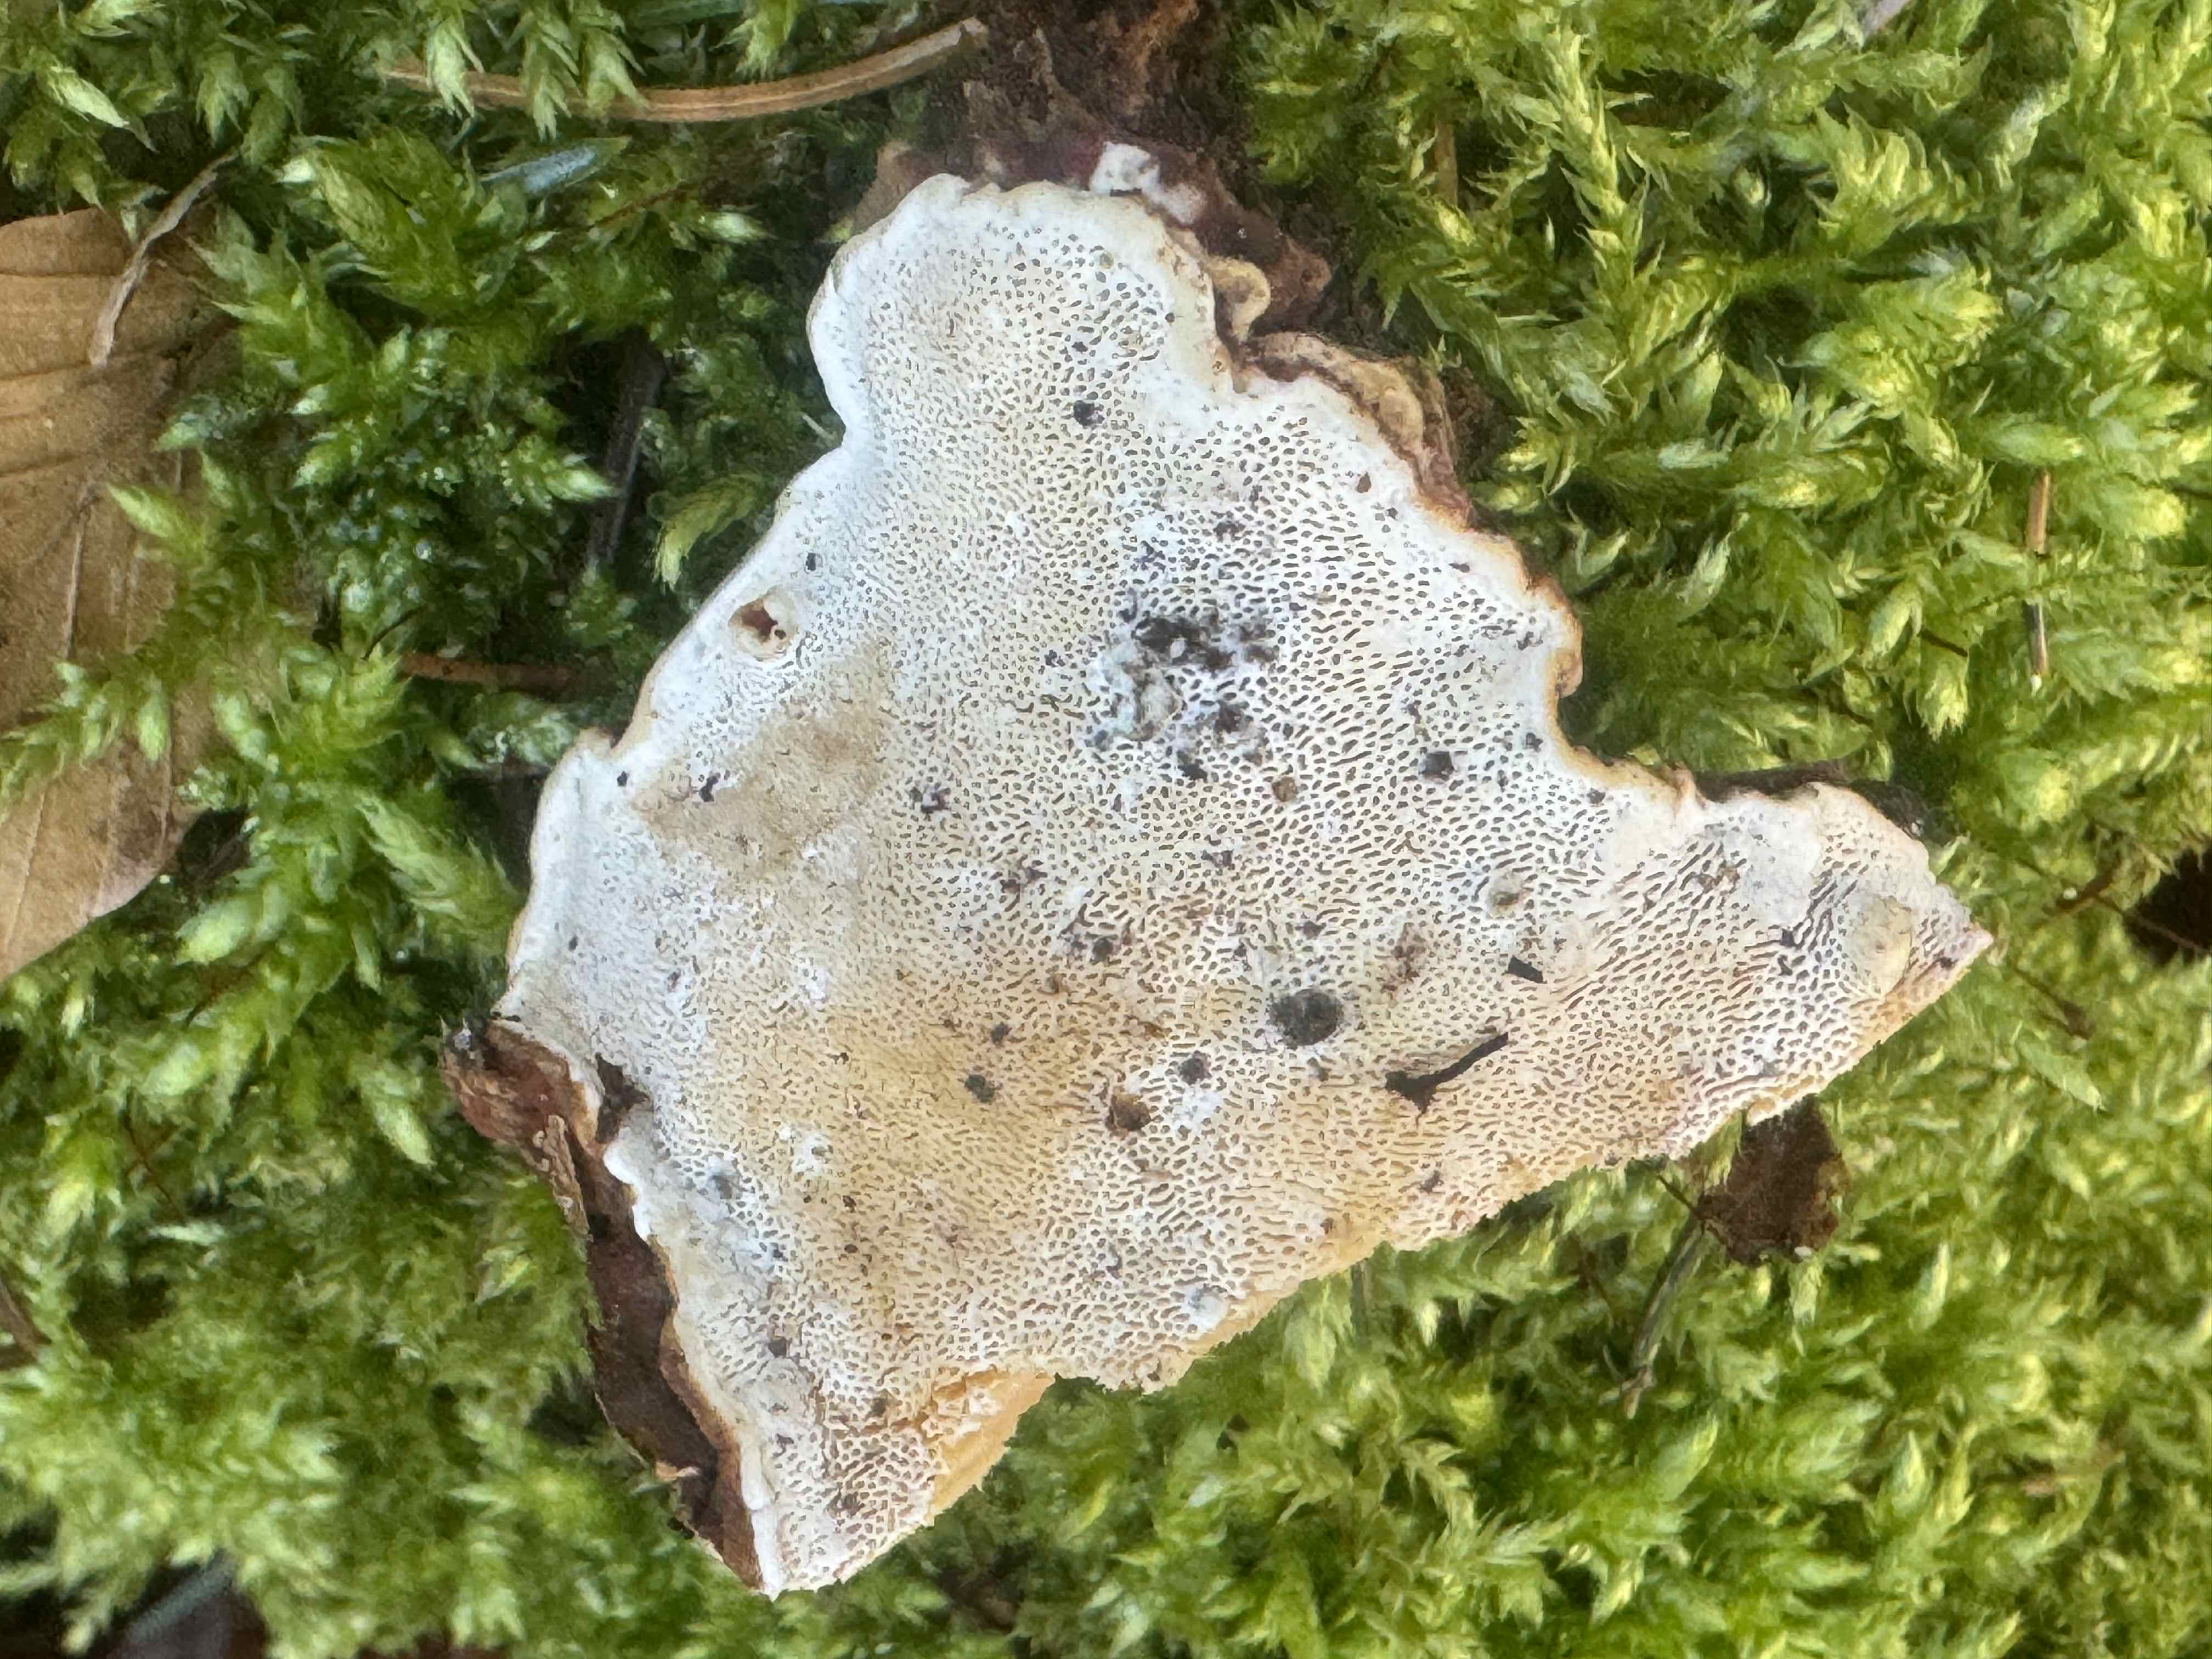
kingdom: Fungi
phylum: Basidiomycota
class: Agaricomycetes
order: Russulales
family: Bondarzewiaceae
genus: Heterobasidion
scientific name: Heterobasidion annosum
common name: almindelig rodfordærver
